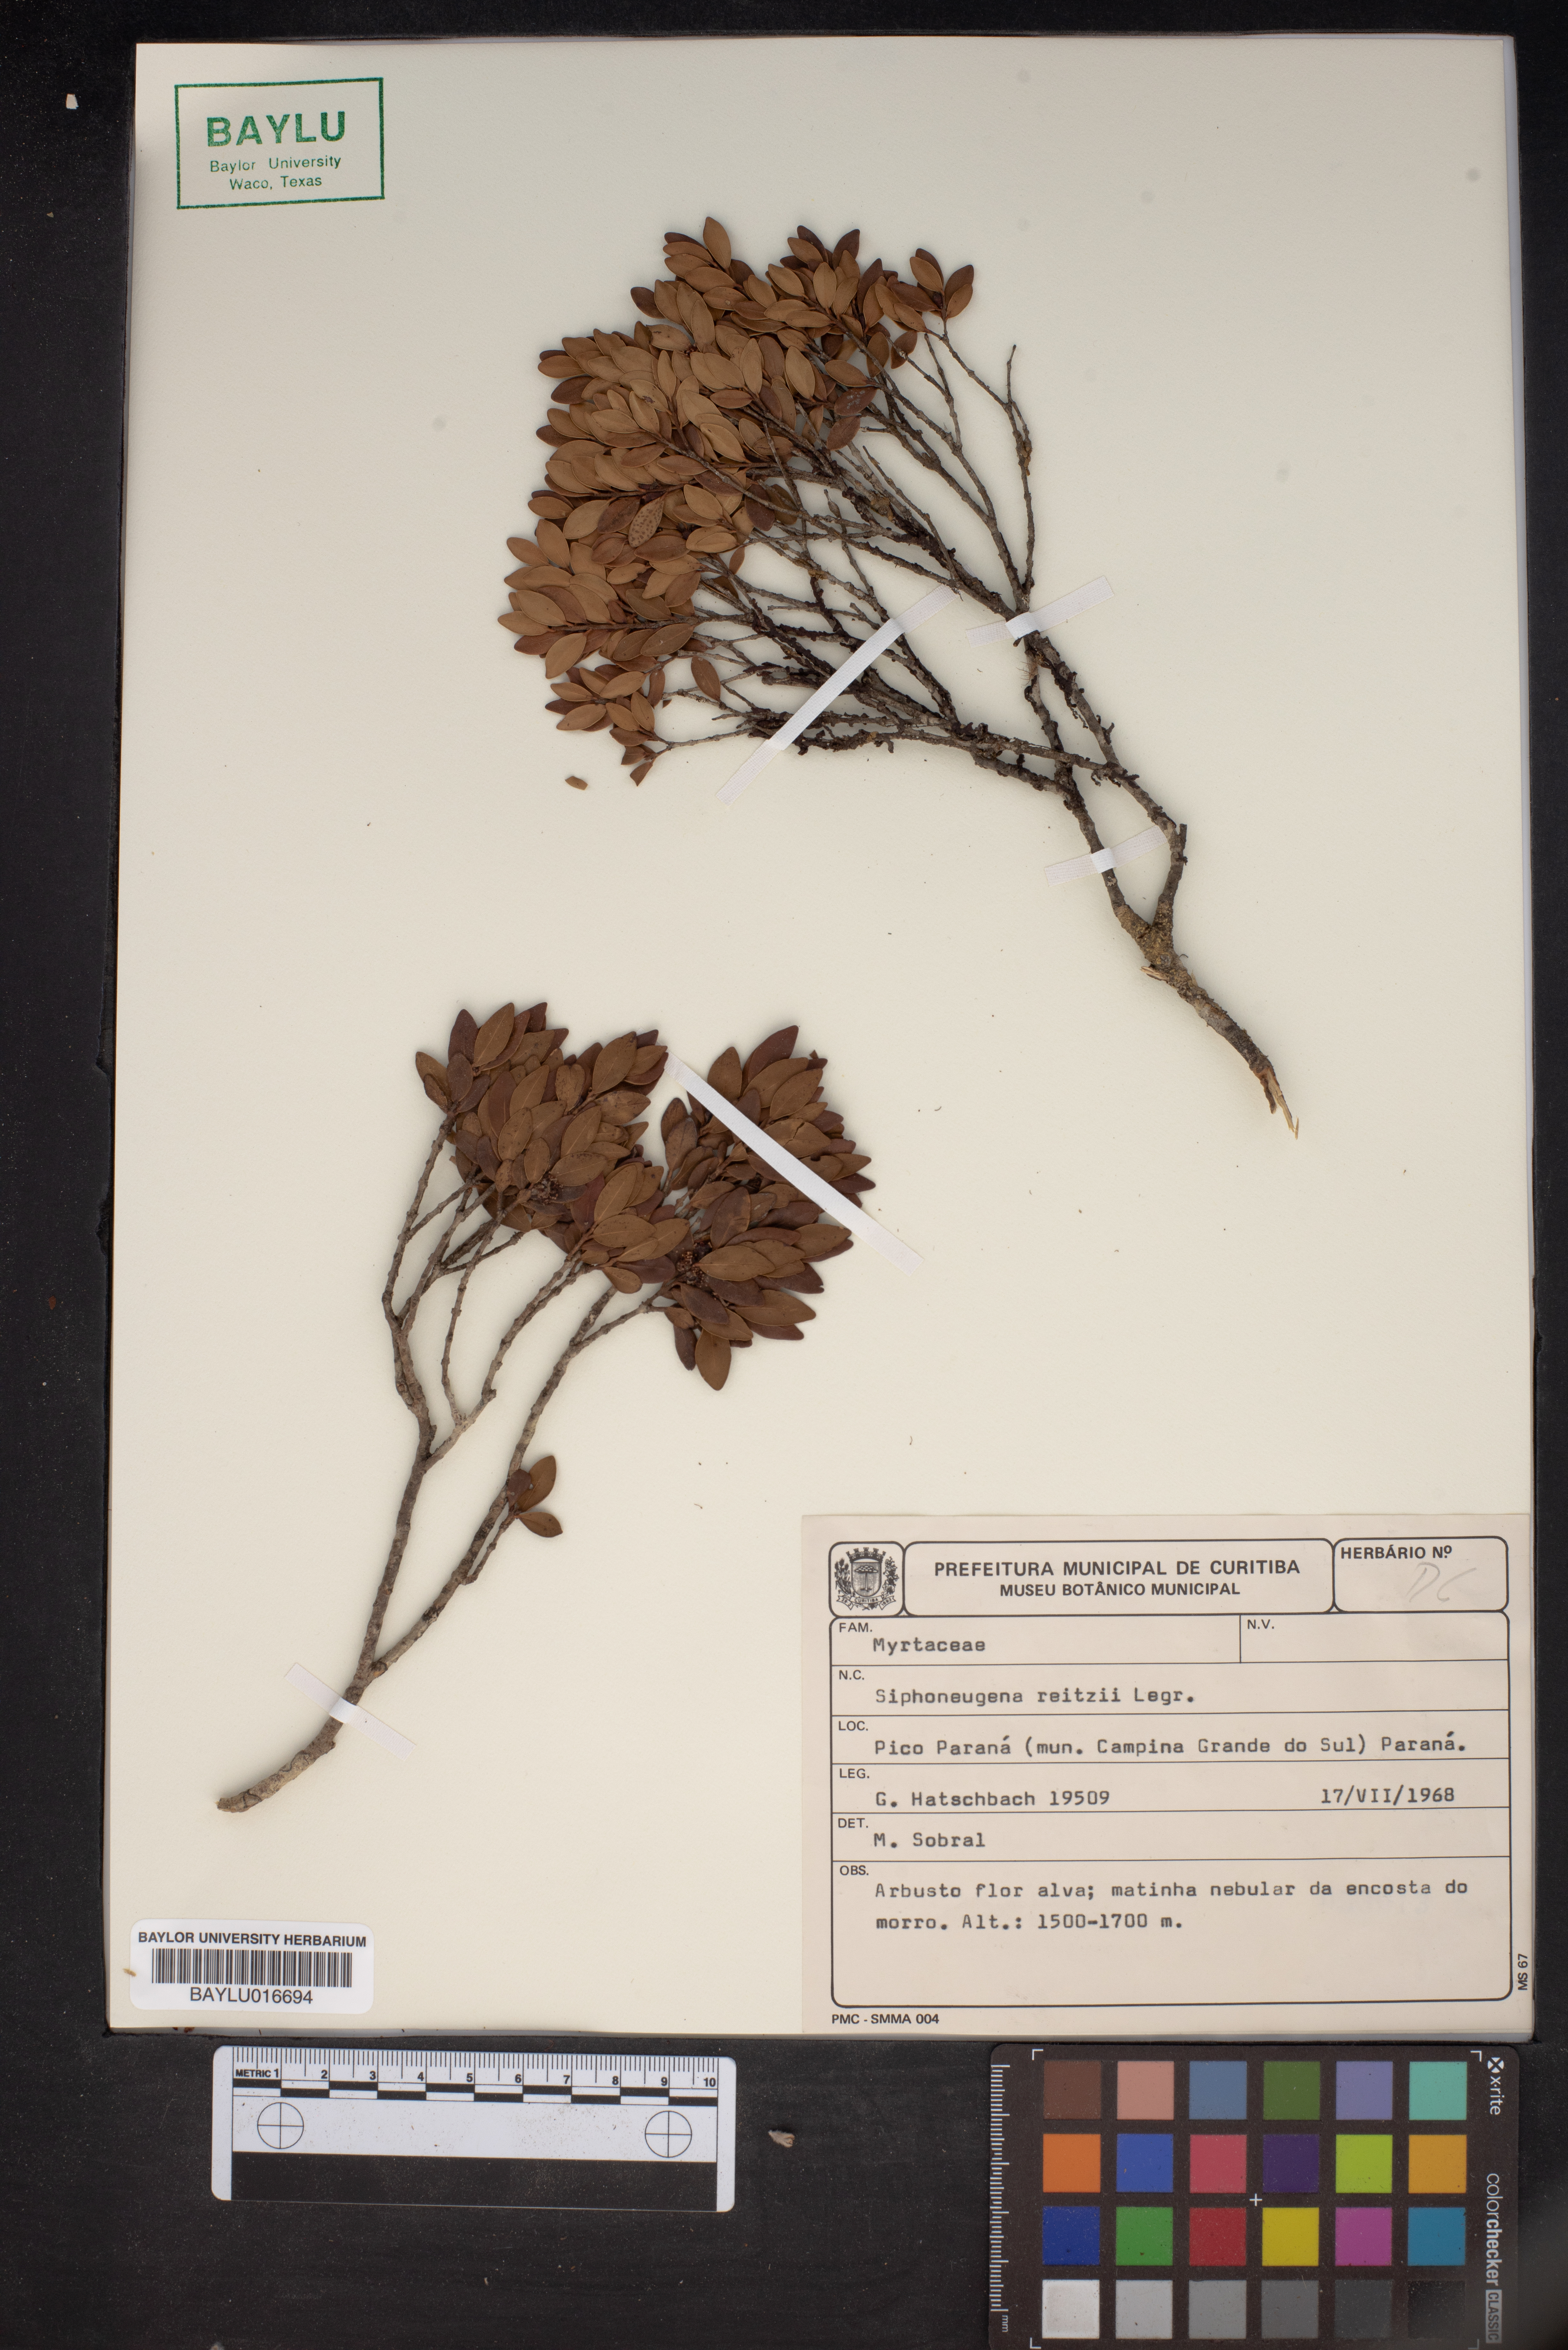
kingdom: Plantae
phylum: Tracheophyta
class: Magnoliopsida
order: Myrtales
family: Myrtaceae
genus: Siphoneugena
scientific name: Siphoneugena reitzii
